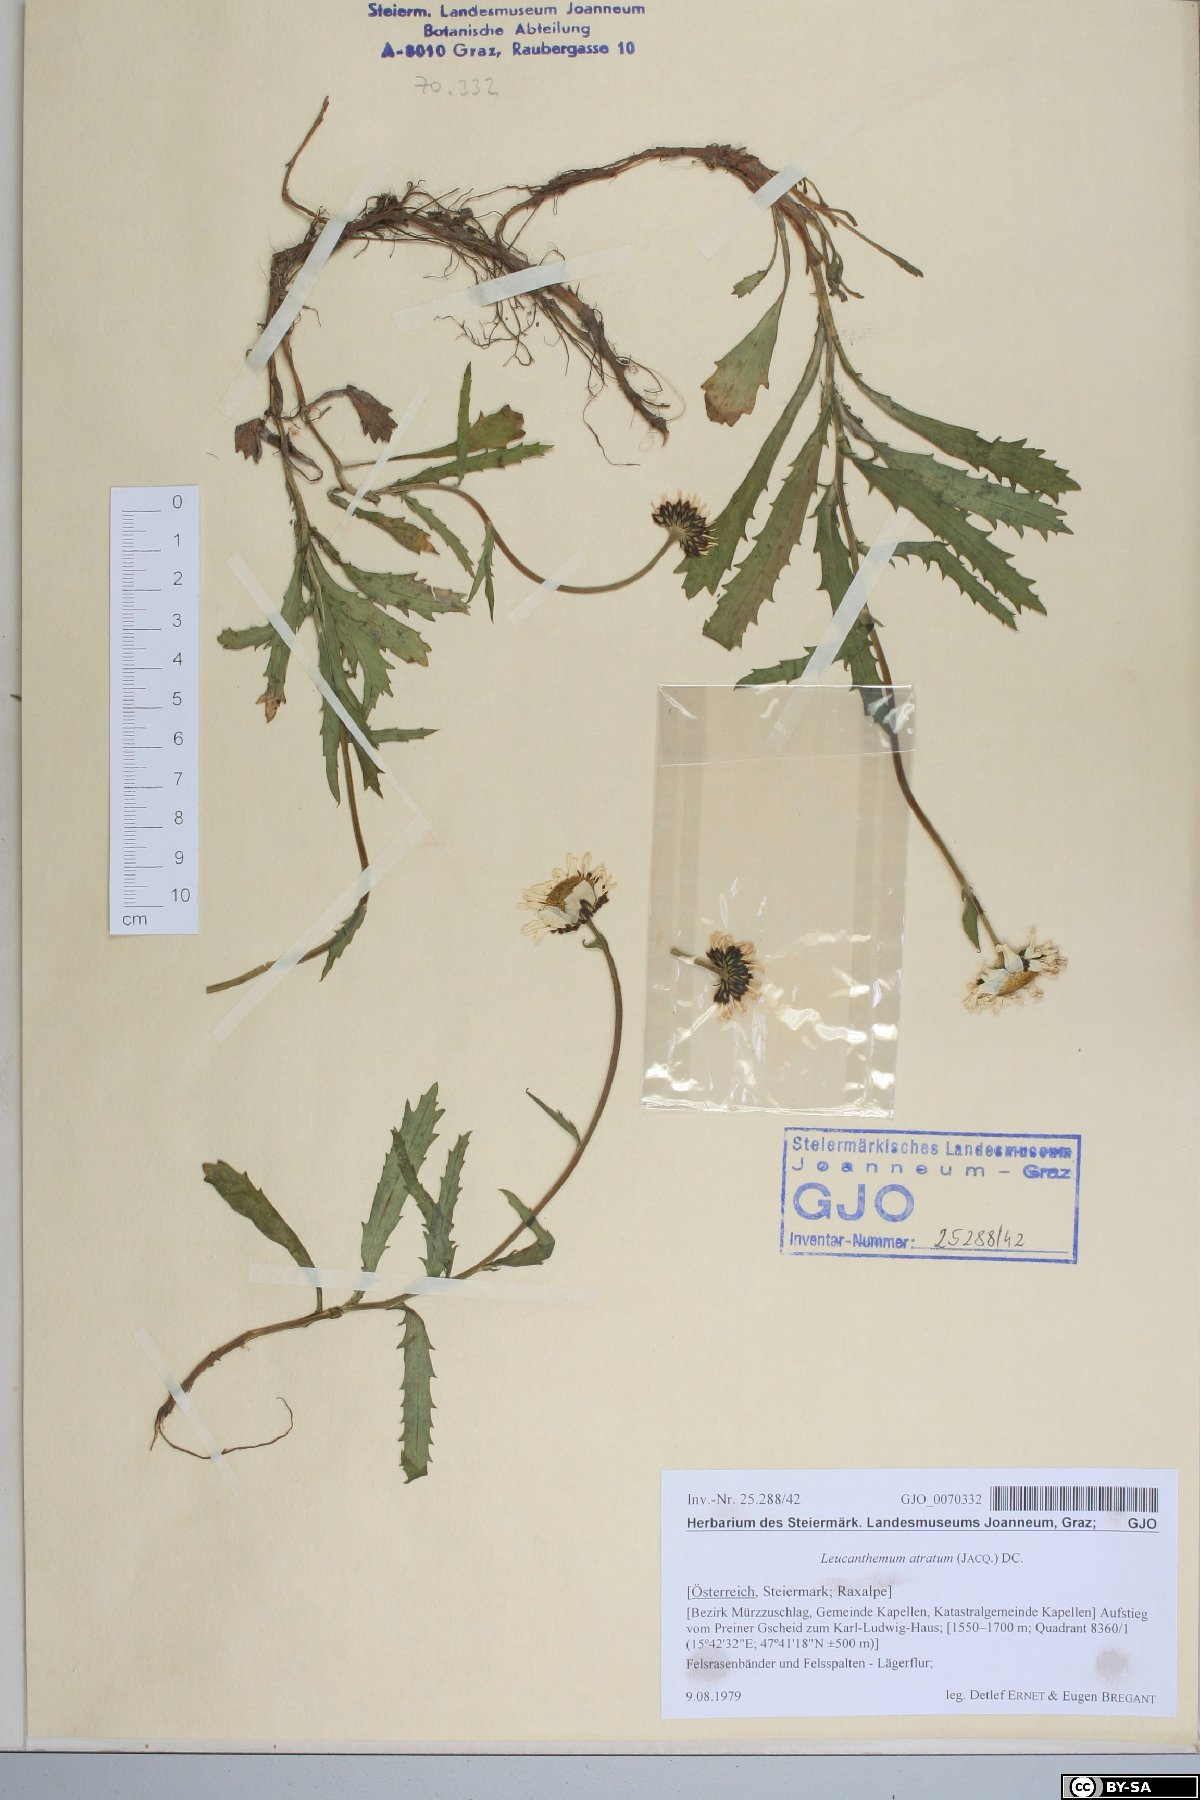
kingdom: Plantae
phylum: Tracheophyta
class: Magnoliopsida
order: Asterales
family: Asteraceae
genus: Leucanthemum
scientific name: Leucanthemum atratum
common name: Saw-leaved moon-daisy
